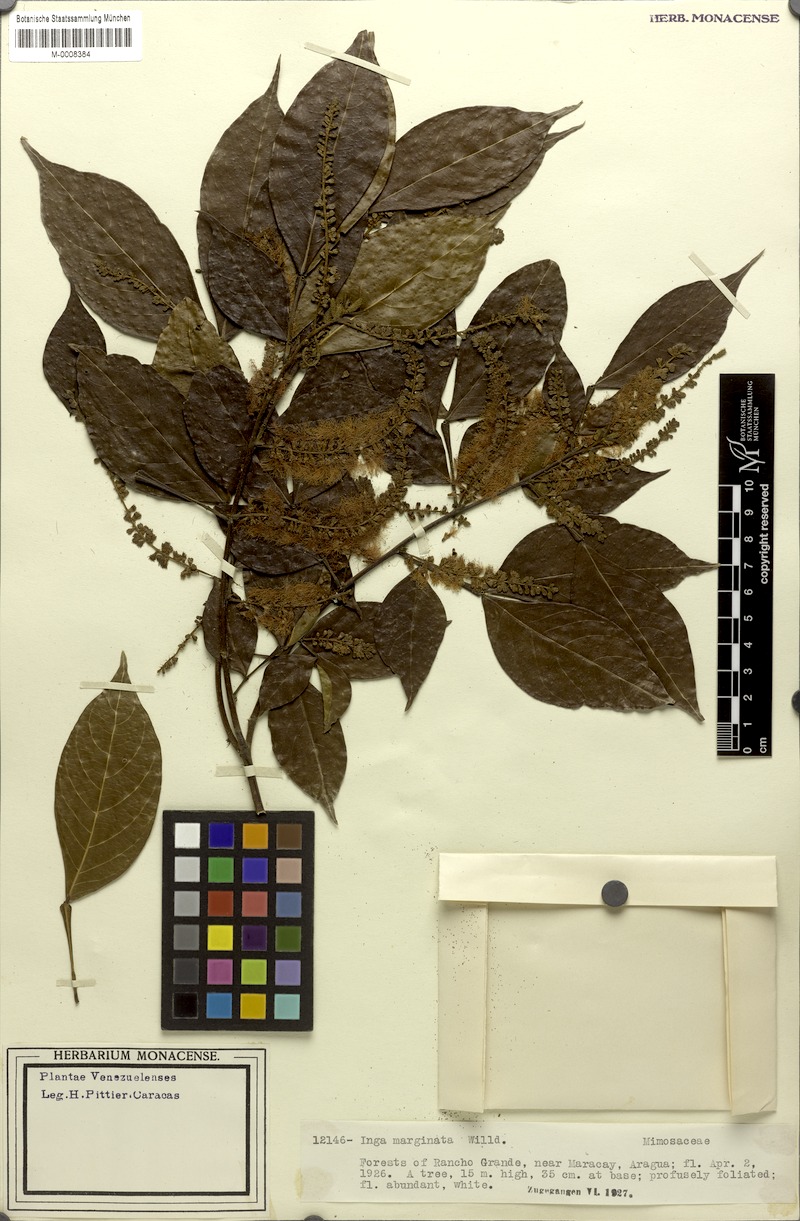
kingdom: Plantae
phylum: Tracheophyta
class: Magnoliopsida
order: Fabales
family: Fabaceae
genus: Inga
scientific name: Inga marginata
